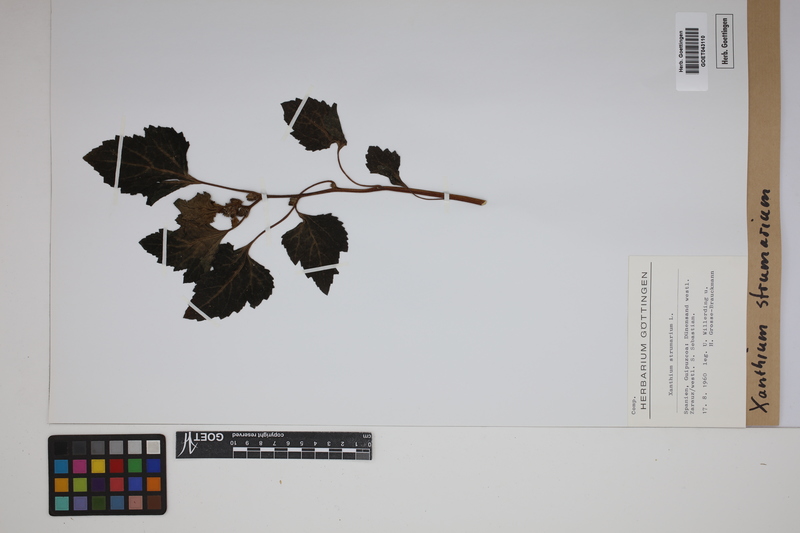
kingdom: Plantae
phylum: Tracheophyta
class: Magnoliopsida
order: Asterales
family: Asteraceae
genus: Xanthium
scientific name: Xanthium strumarium
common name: Rough cocklebur
